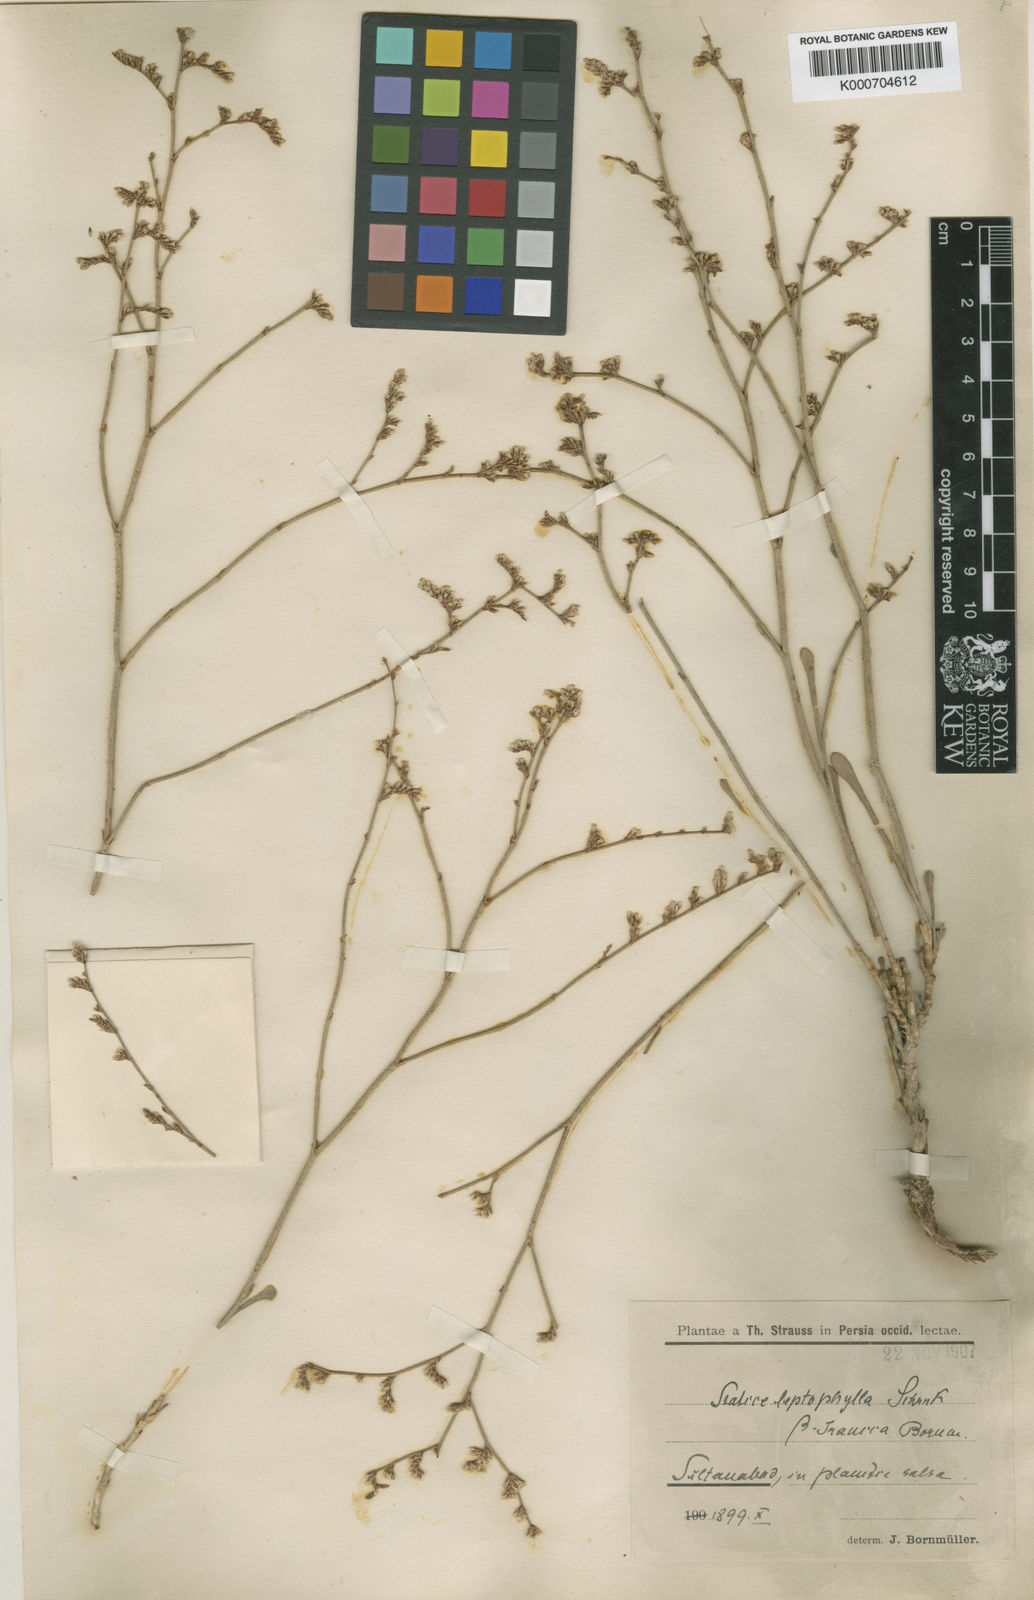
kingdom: Plantae
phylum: Tracheophyta
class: Magnoliopsida
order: Caryophyllales
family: Plumbaginaceae
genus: Limonium
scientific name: Limonium leptophyllum
